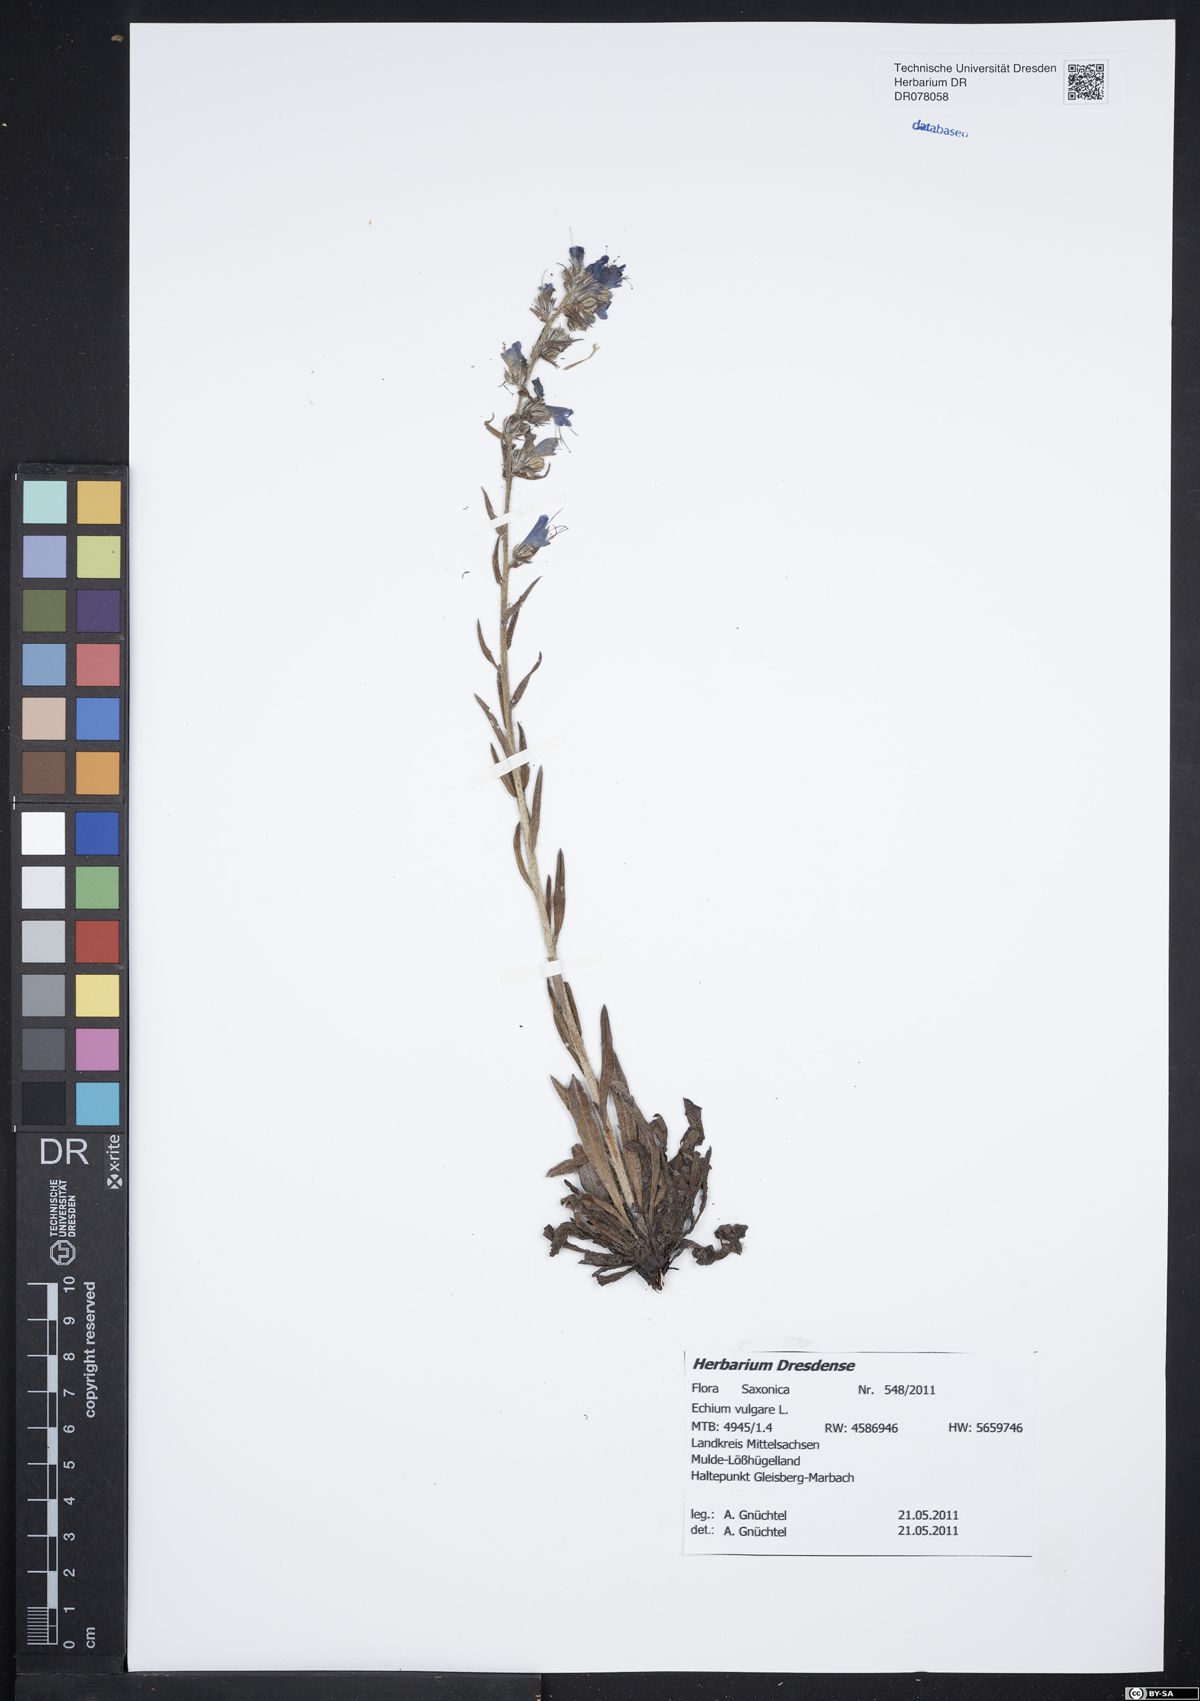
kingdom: Plantae
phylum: Tracheophyta
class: Magnoliopsida
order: Boraginales
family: Boraginaceae
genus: Echium
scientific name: Echium vulgare
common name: Common viper's bugloss
